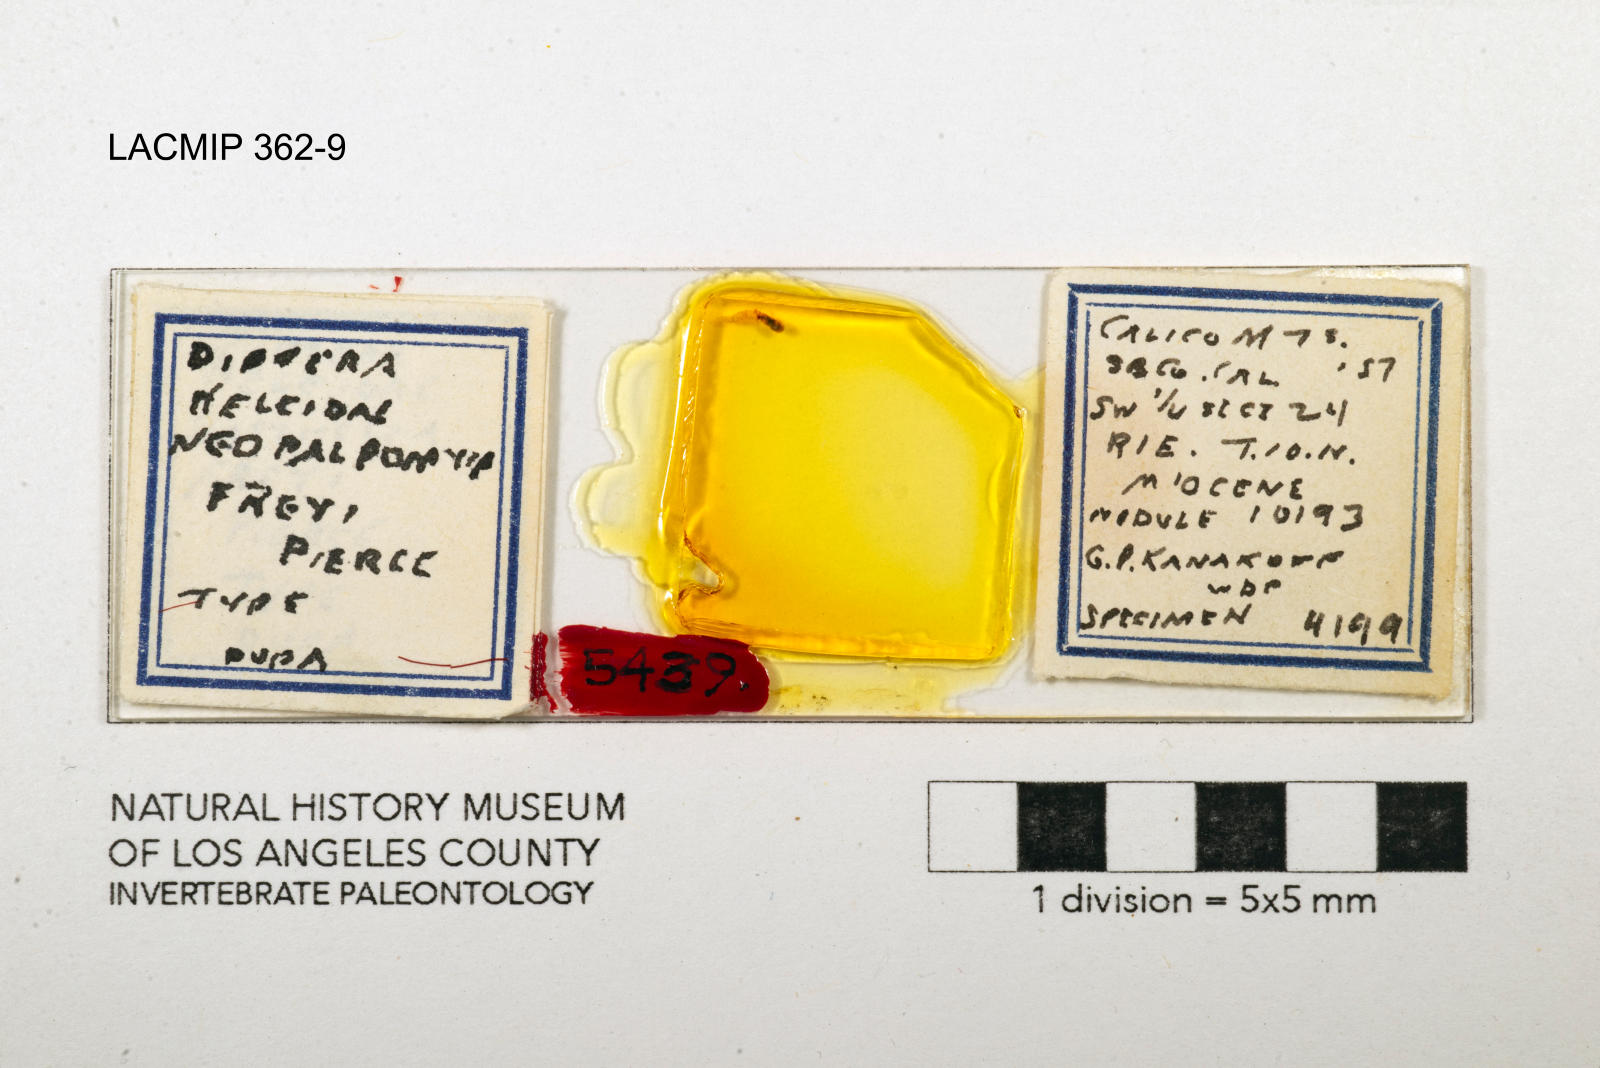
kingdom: Animalia
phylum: Arthropoda
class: Insecta
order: Diptera
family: Ceratopogonidae
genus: Palpomyia
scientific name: Palpomyia freyi
